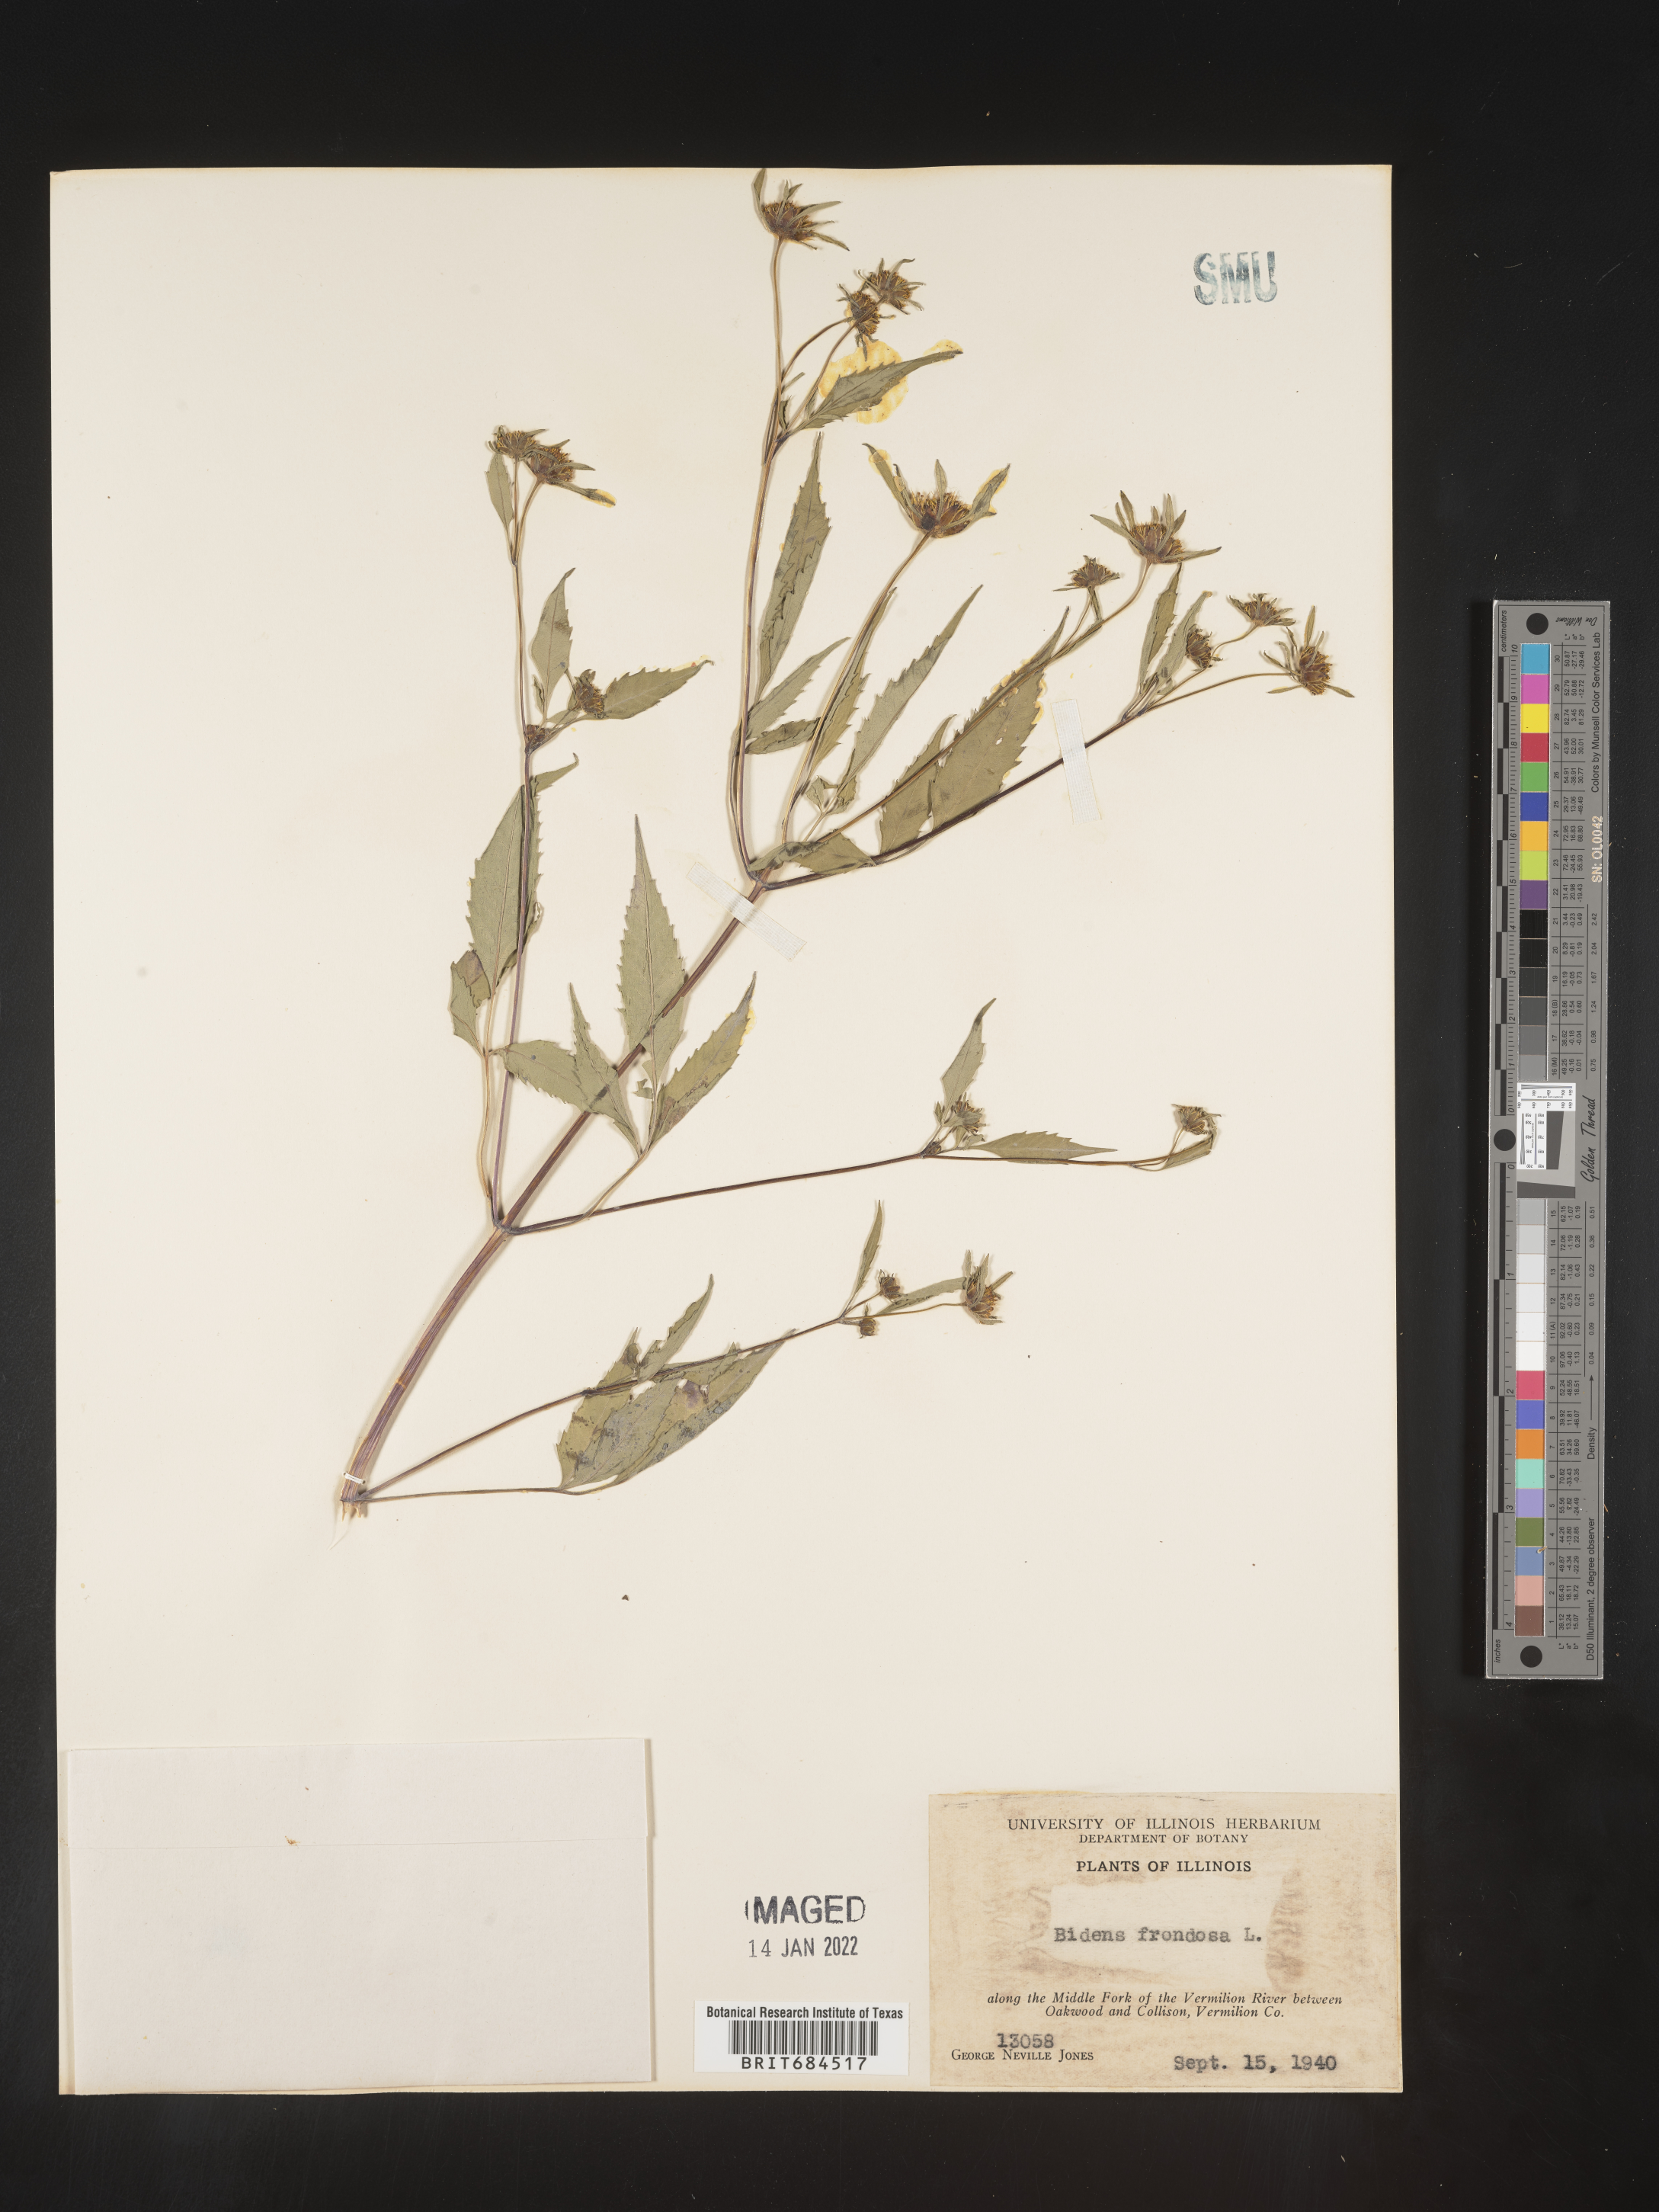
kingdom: Plantae
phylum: Tracheophyta
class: Magnoliopsida
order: Asterales
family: Asteraceae
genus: Bidens
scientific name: Bidens frondosa
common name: Beggarticks
